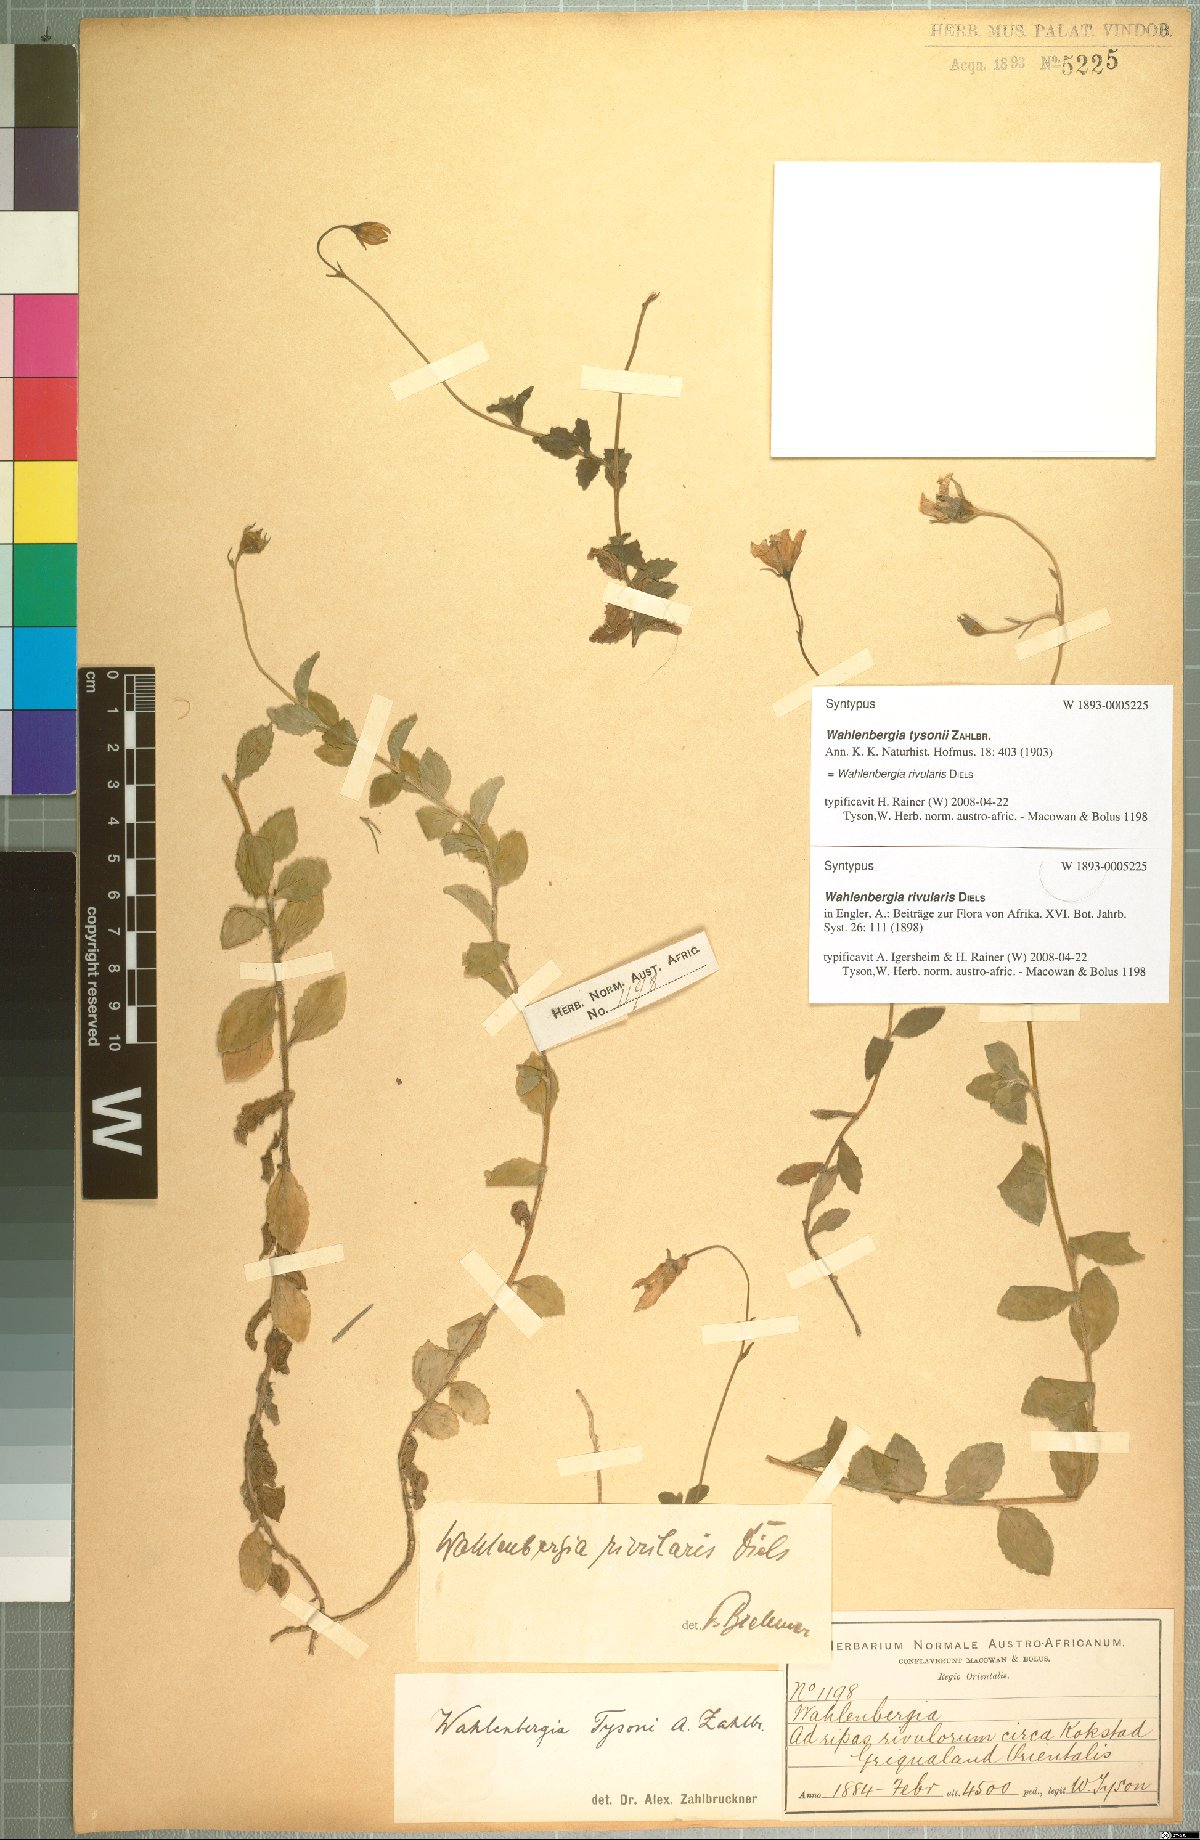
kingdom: Plantae
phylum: Tracheophyta
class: Magnoliopsida
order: Asterales
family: Campanulaceae
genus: Wahlenbergia
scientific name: Wahlenbergia rivularis
